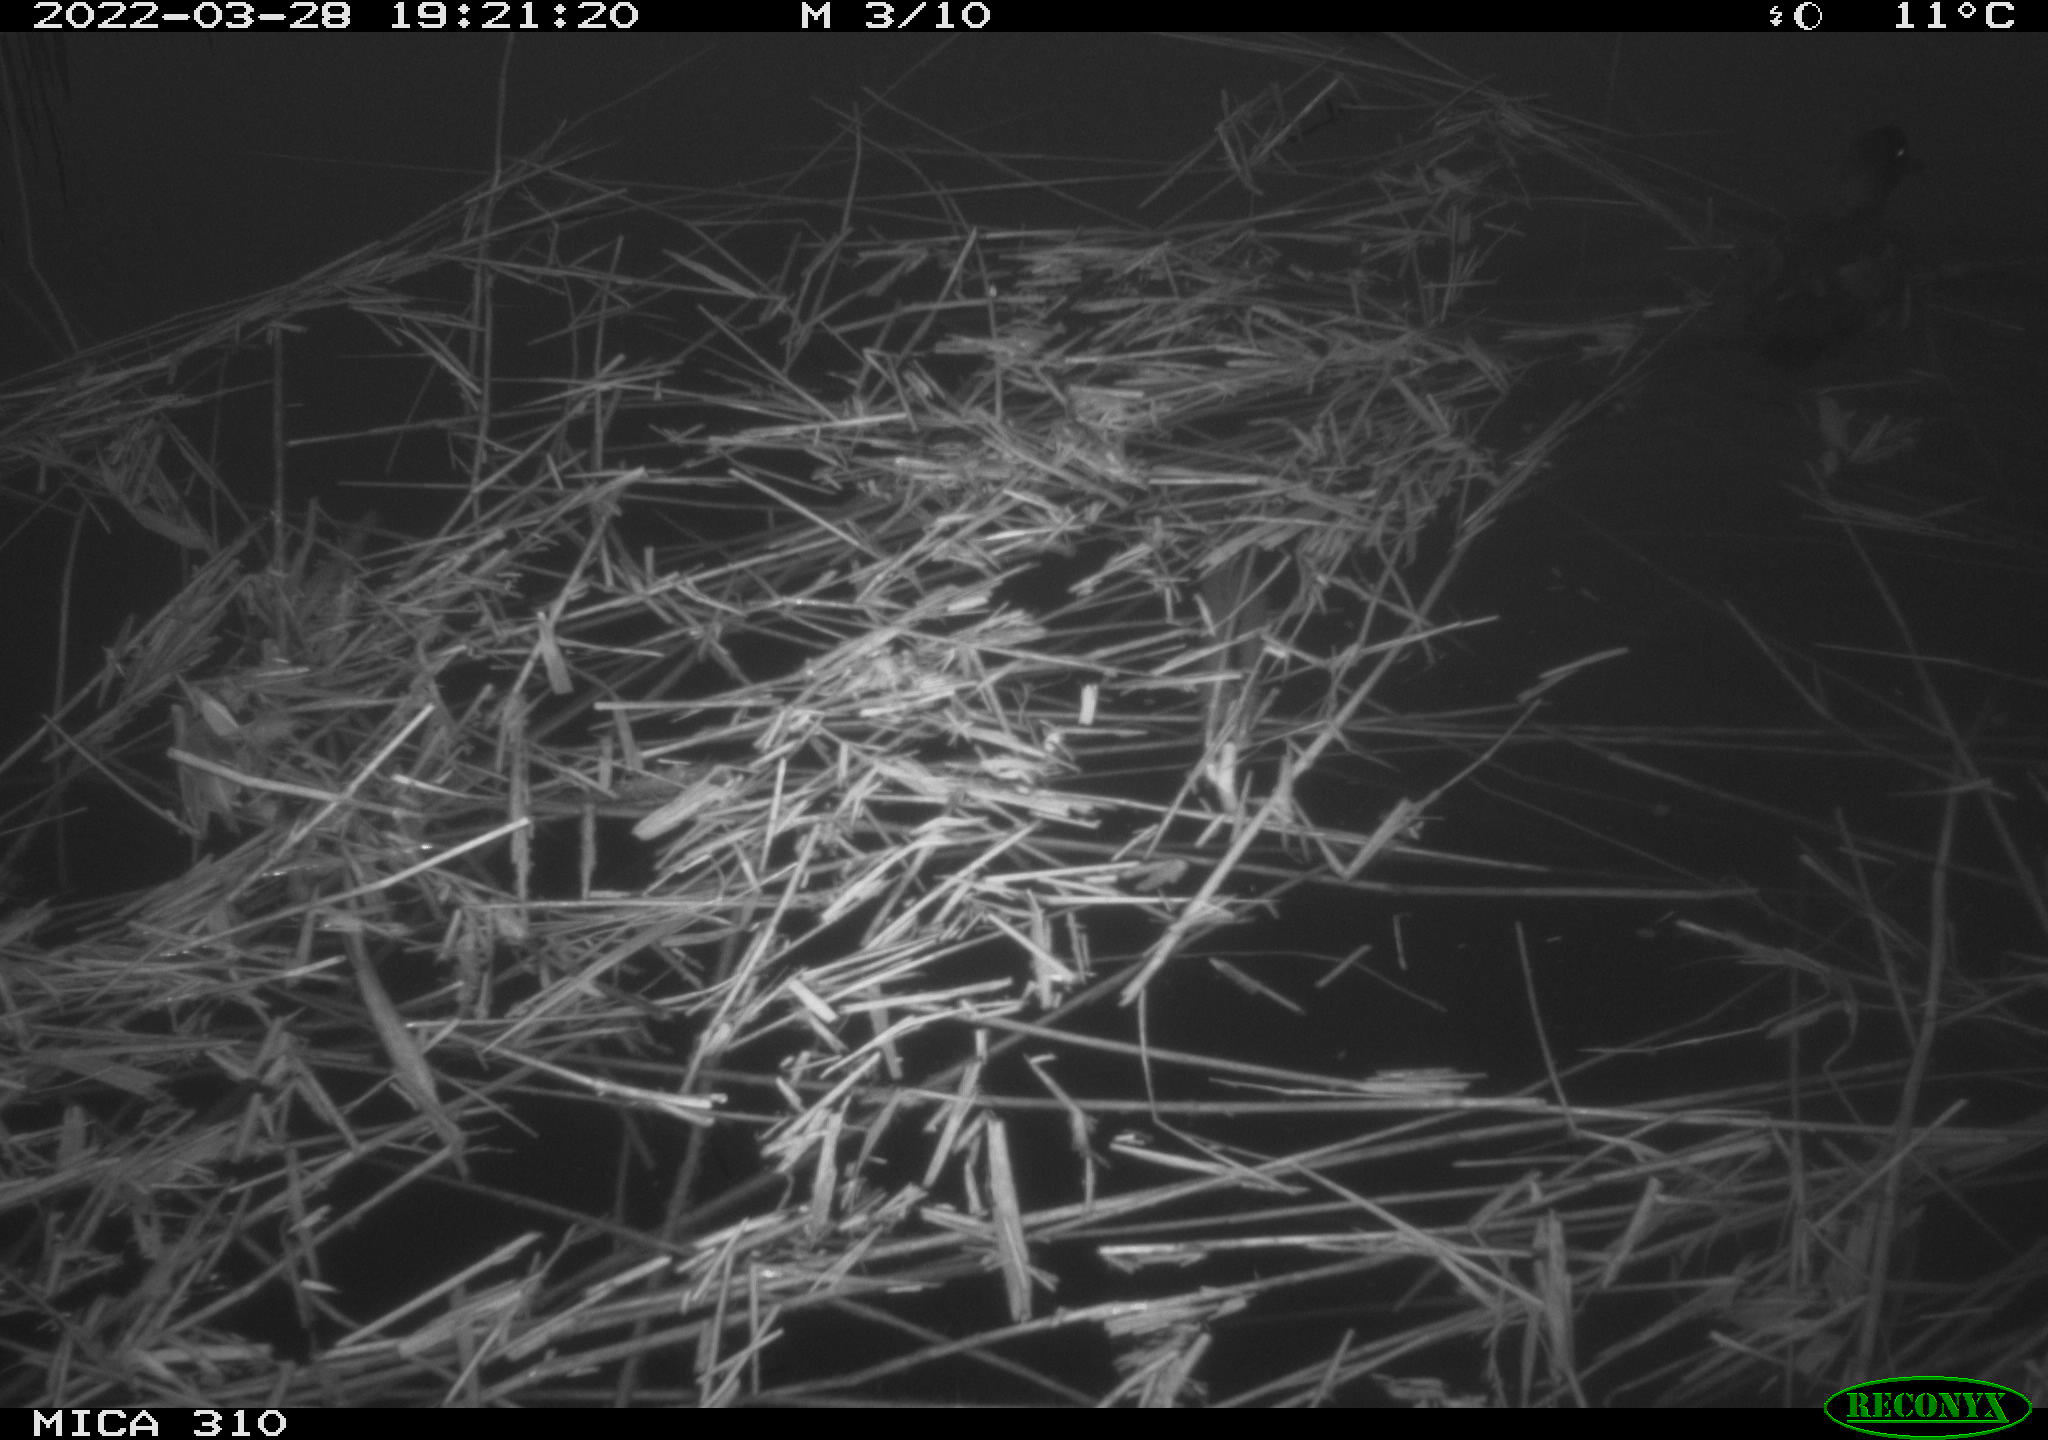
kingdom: Animalia
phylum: Chordata
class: Aves
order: Anseriformes
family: Anatidae
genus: Anas
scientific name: Anas platyrhynchos
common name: Mallard
